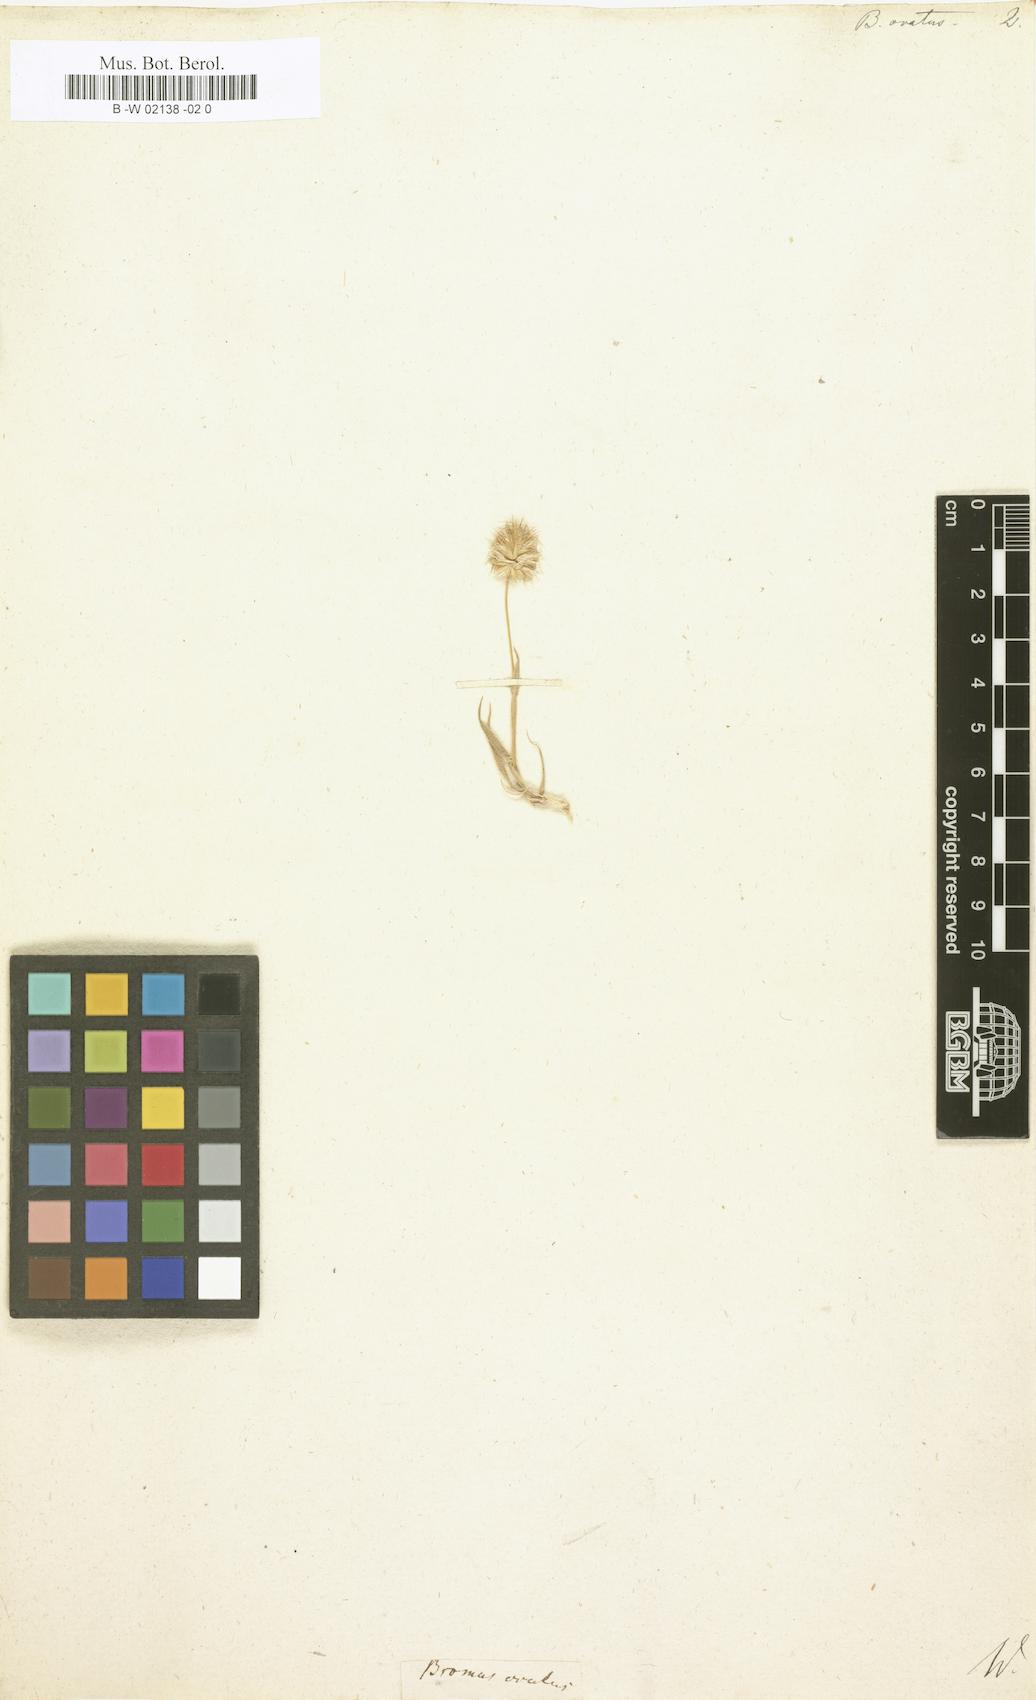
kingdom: Plantae
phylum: Tracheophyta
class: Liliopsida
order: Poales
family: Poaceae
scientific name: Poaceae
